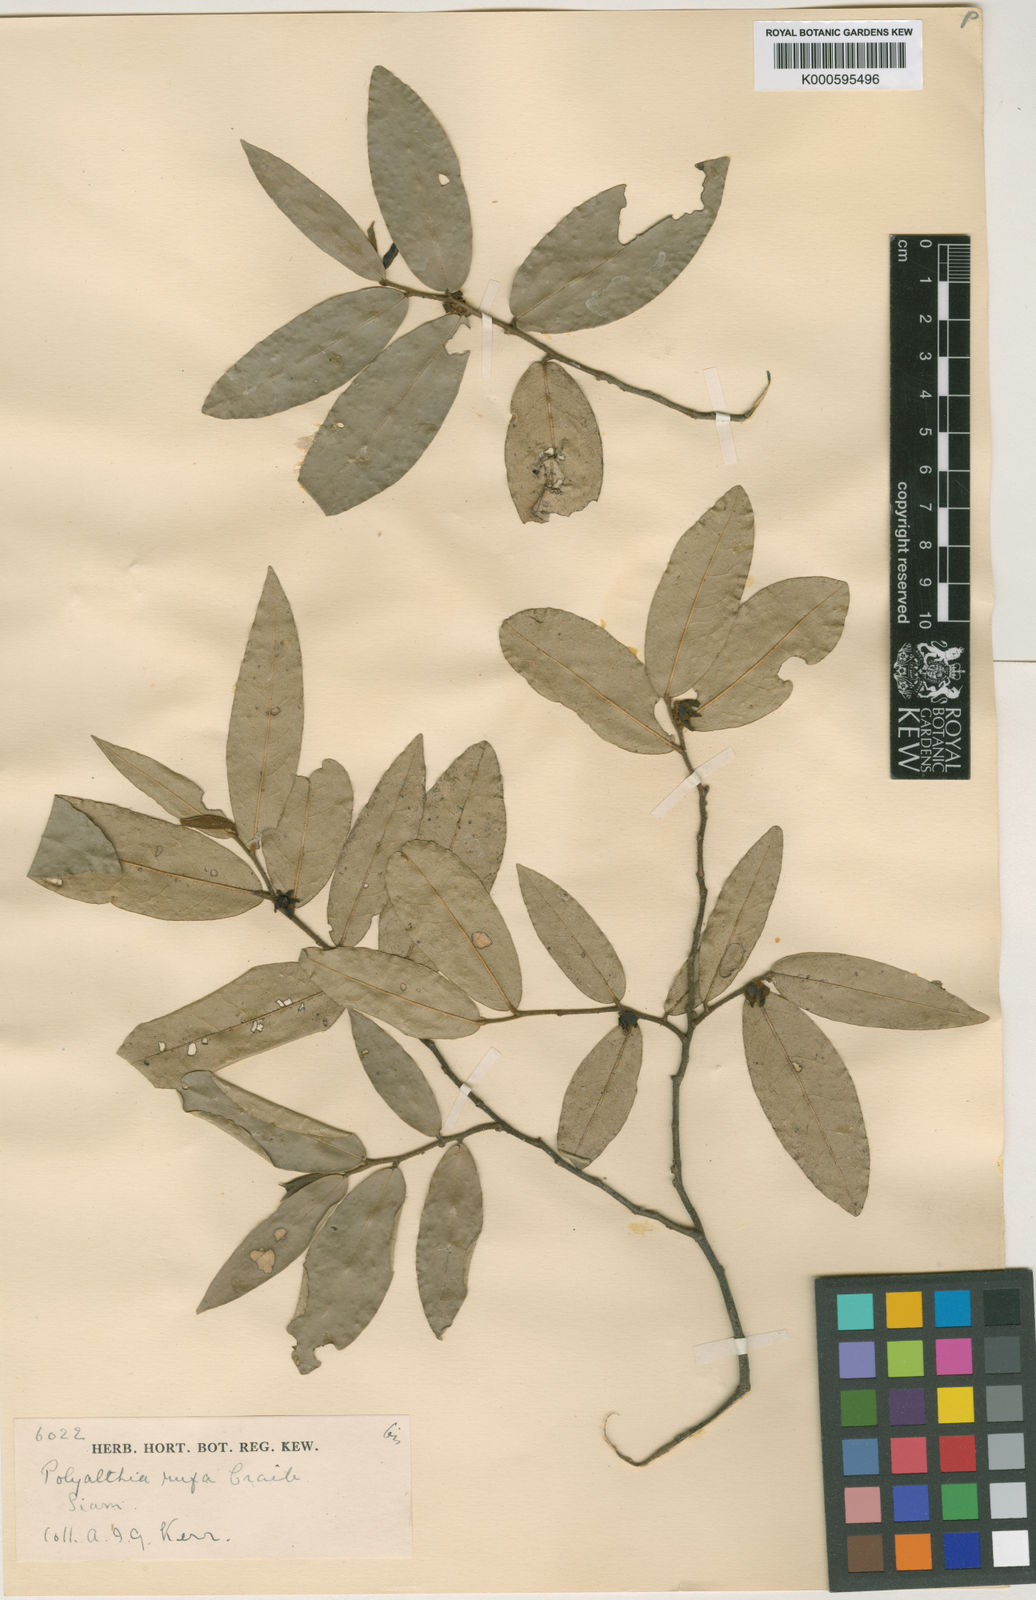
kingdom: Plantae
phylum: Tracheophyta
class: Magnoliopsida
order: Magnoliales
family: Annonaceae
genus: Polyalthia
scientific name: Polyalthia parviflora
